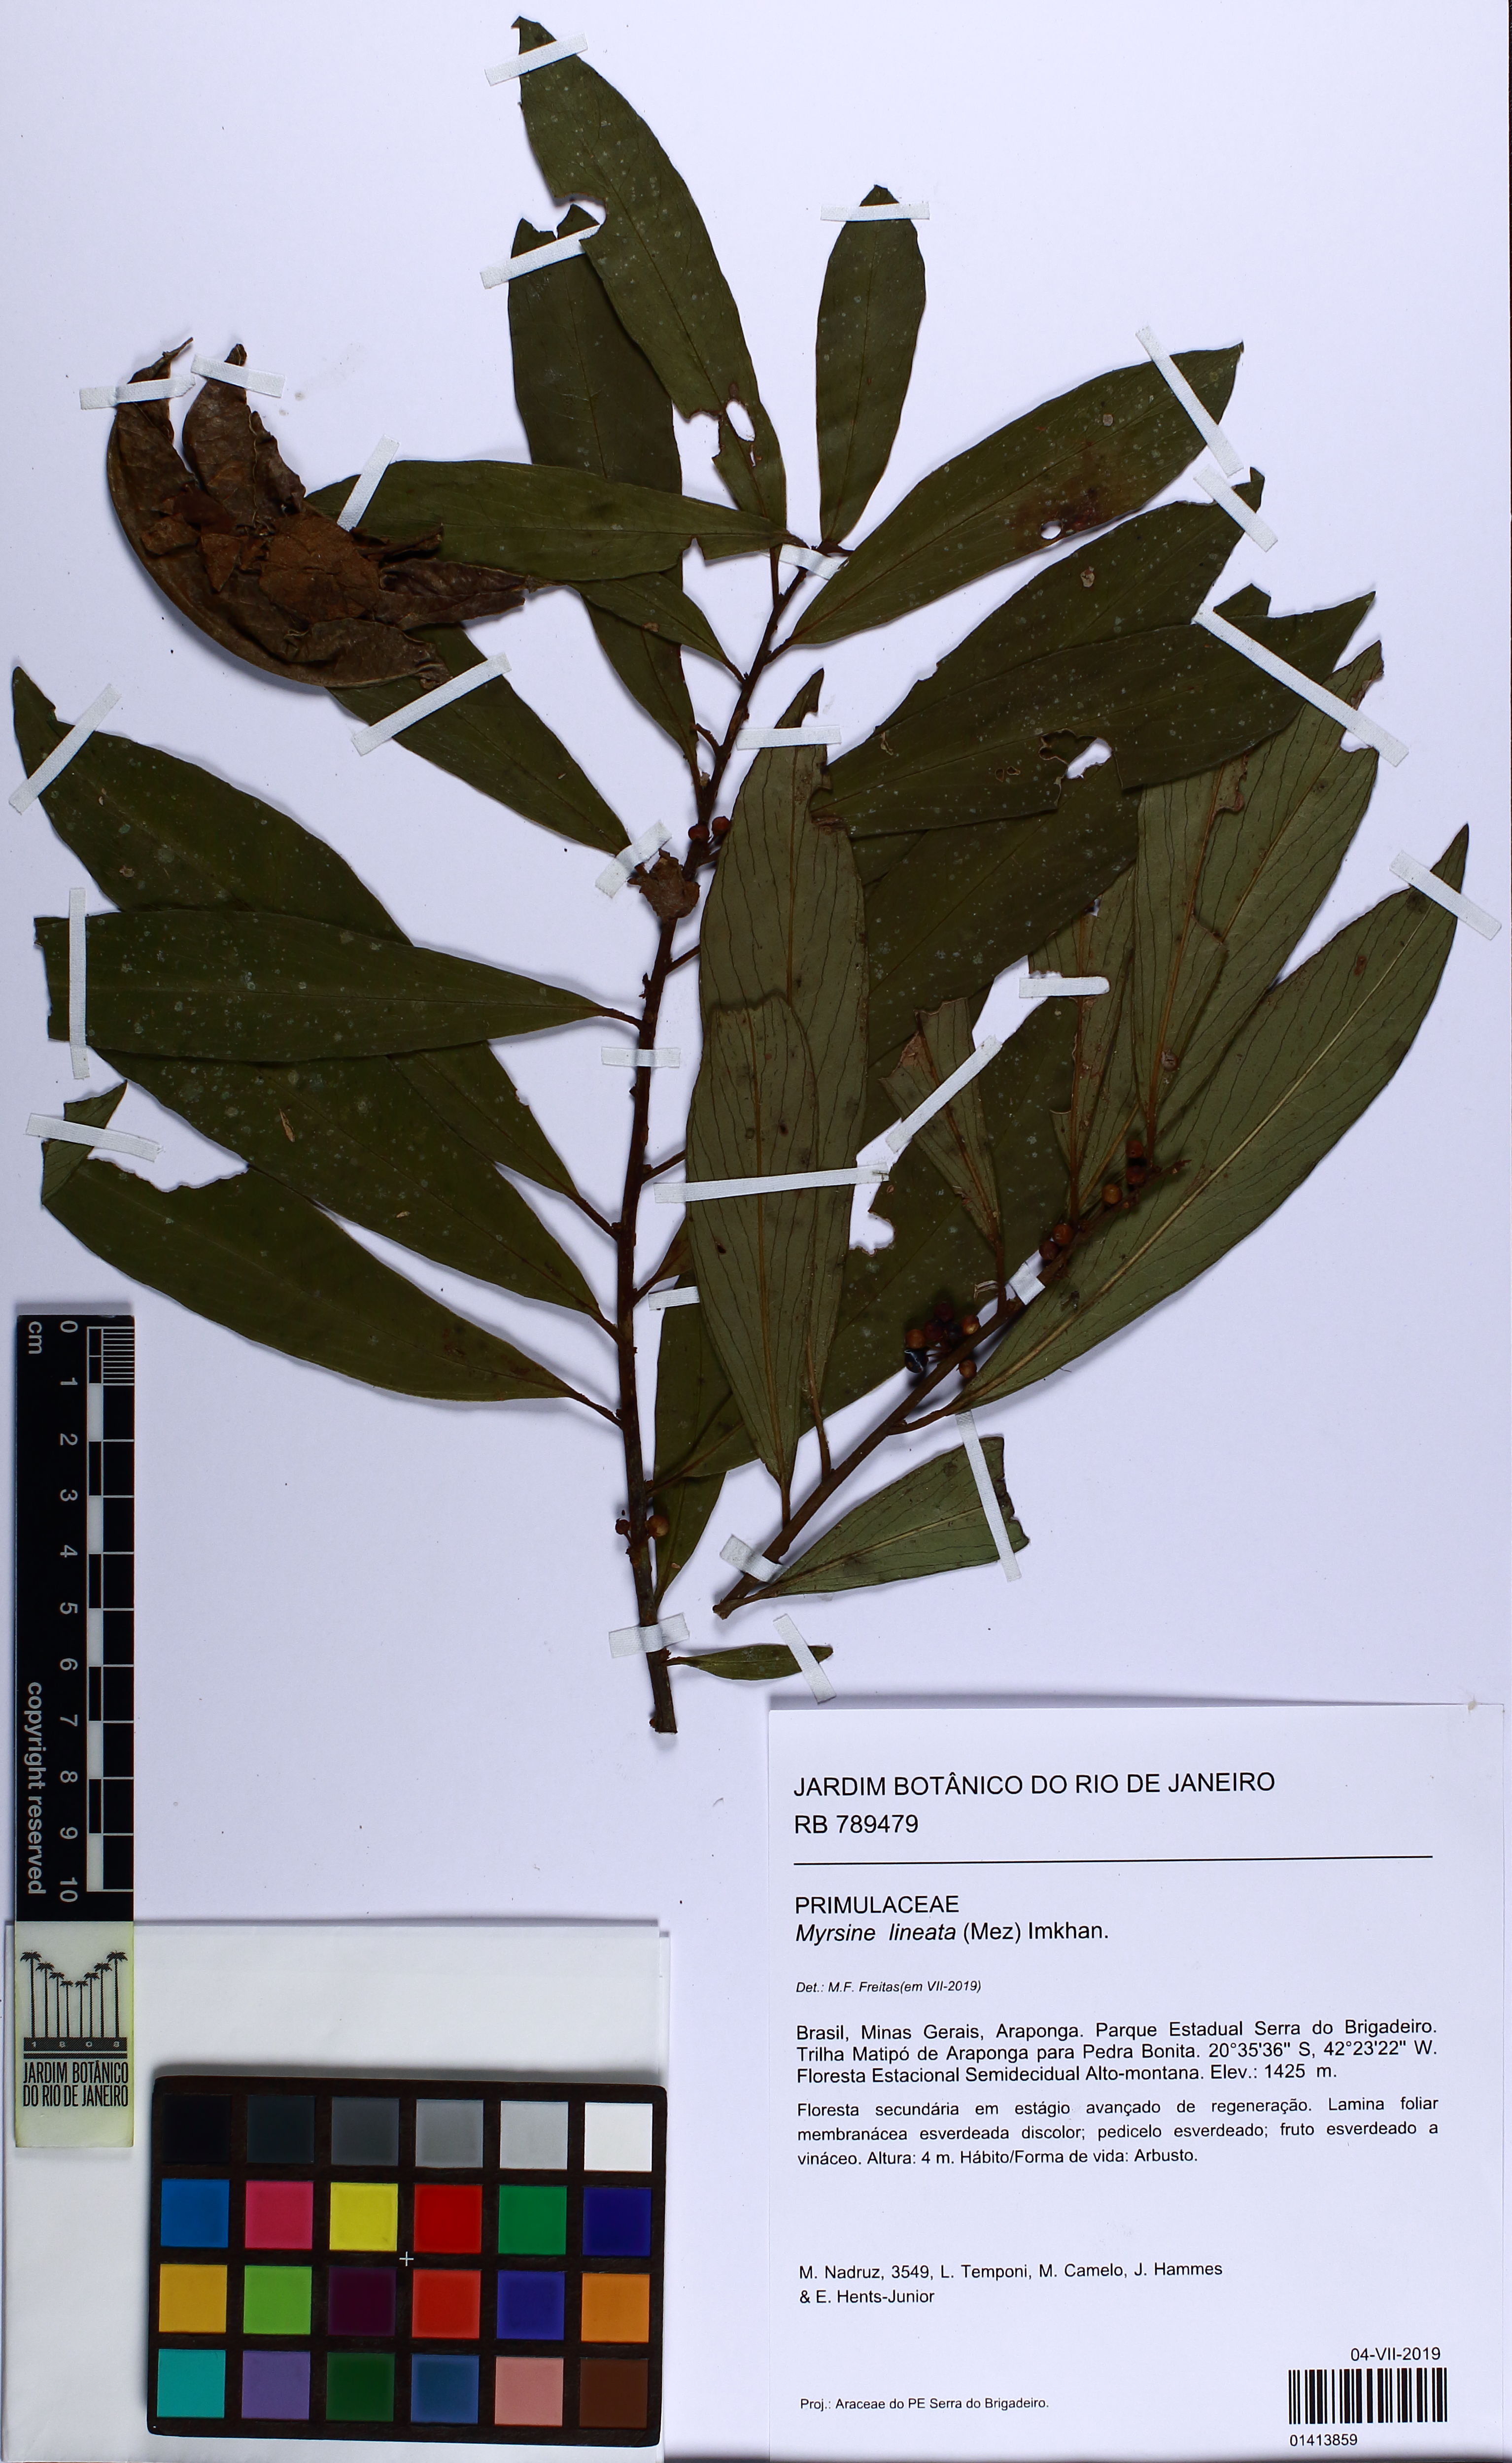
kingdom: Plantae
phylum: Tracheophyta
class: Magnoliopsida
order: Ericales
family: Primulaceae
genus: Myrsine
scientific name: Myrsine lineata
